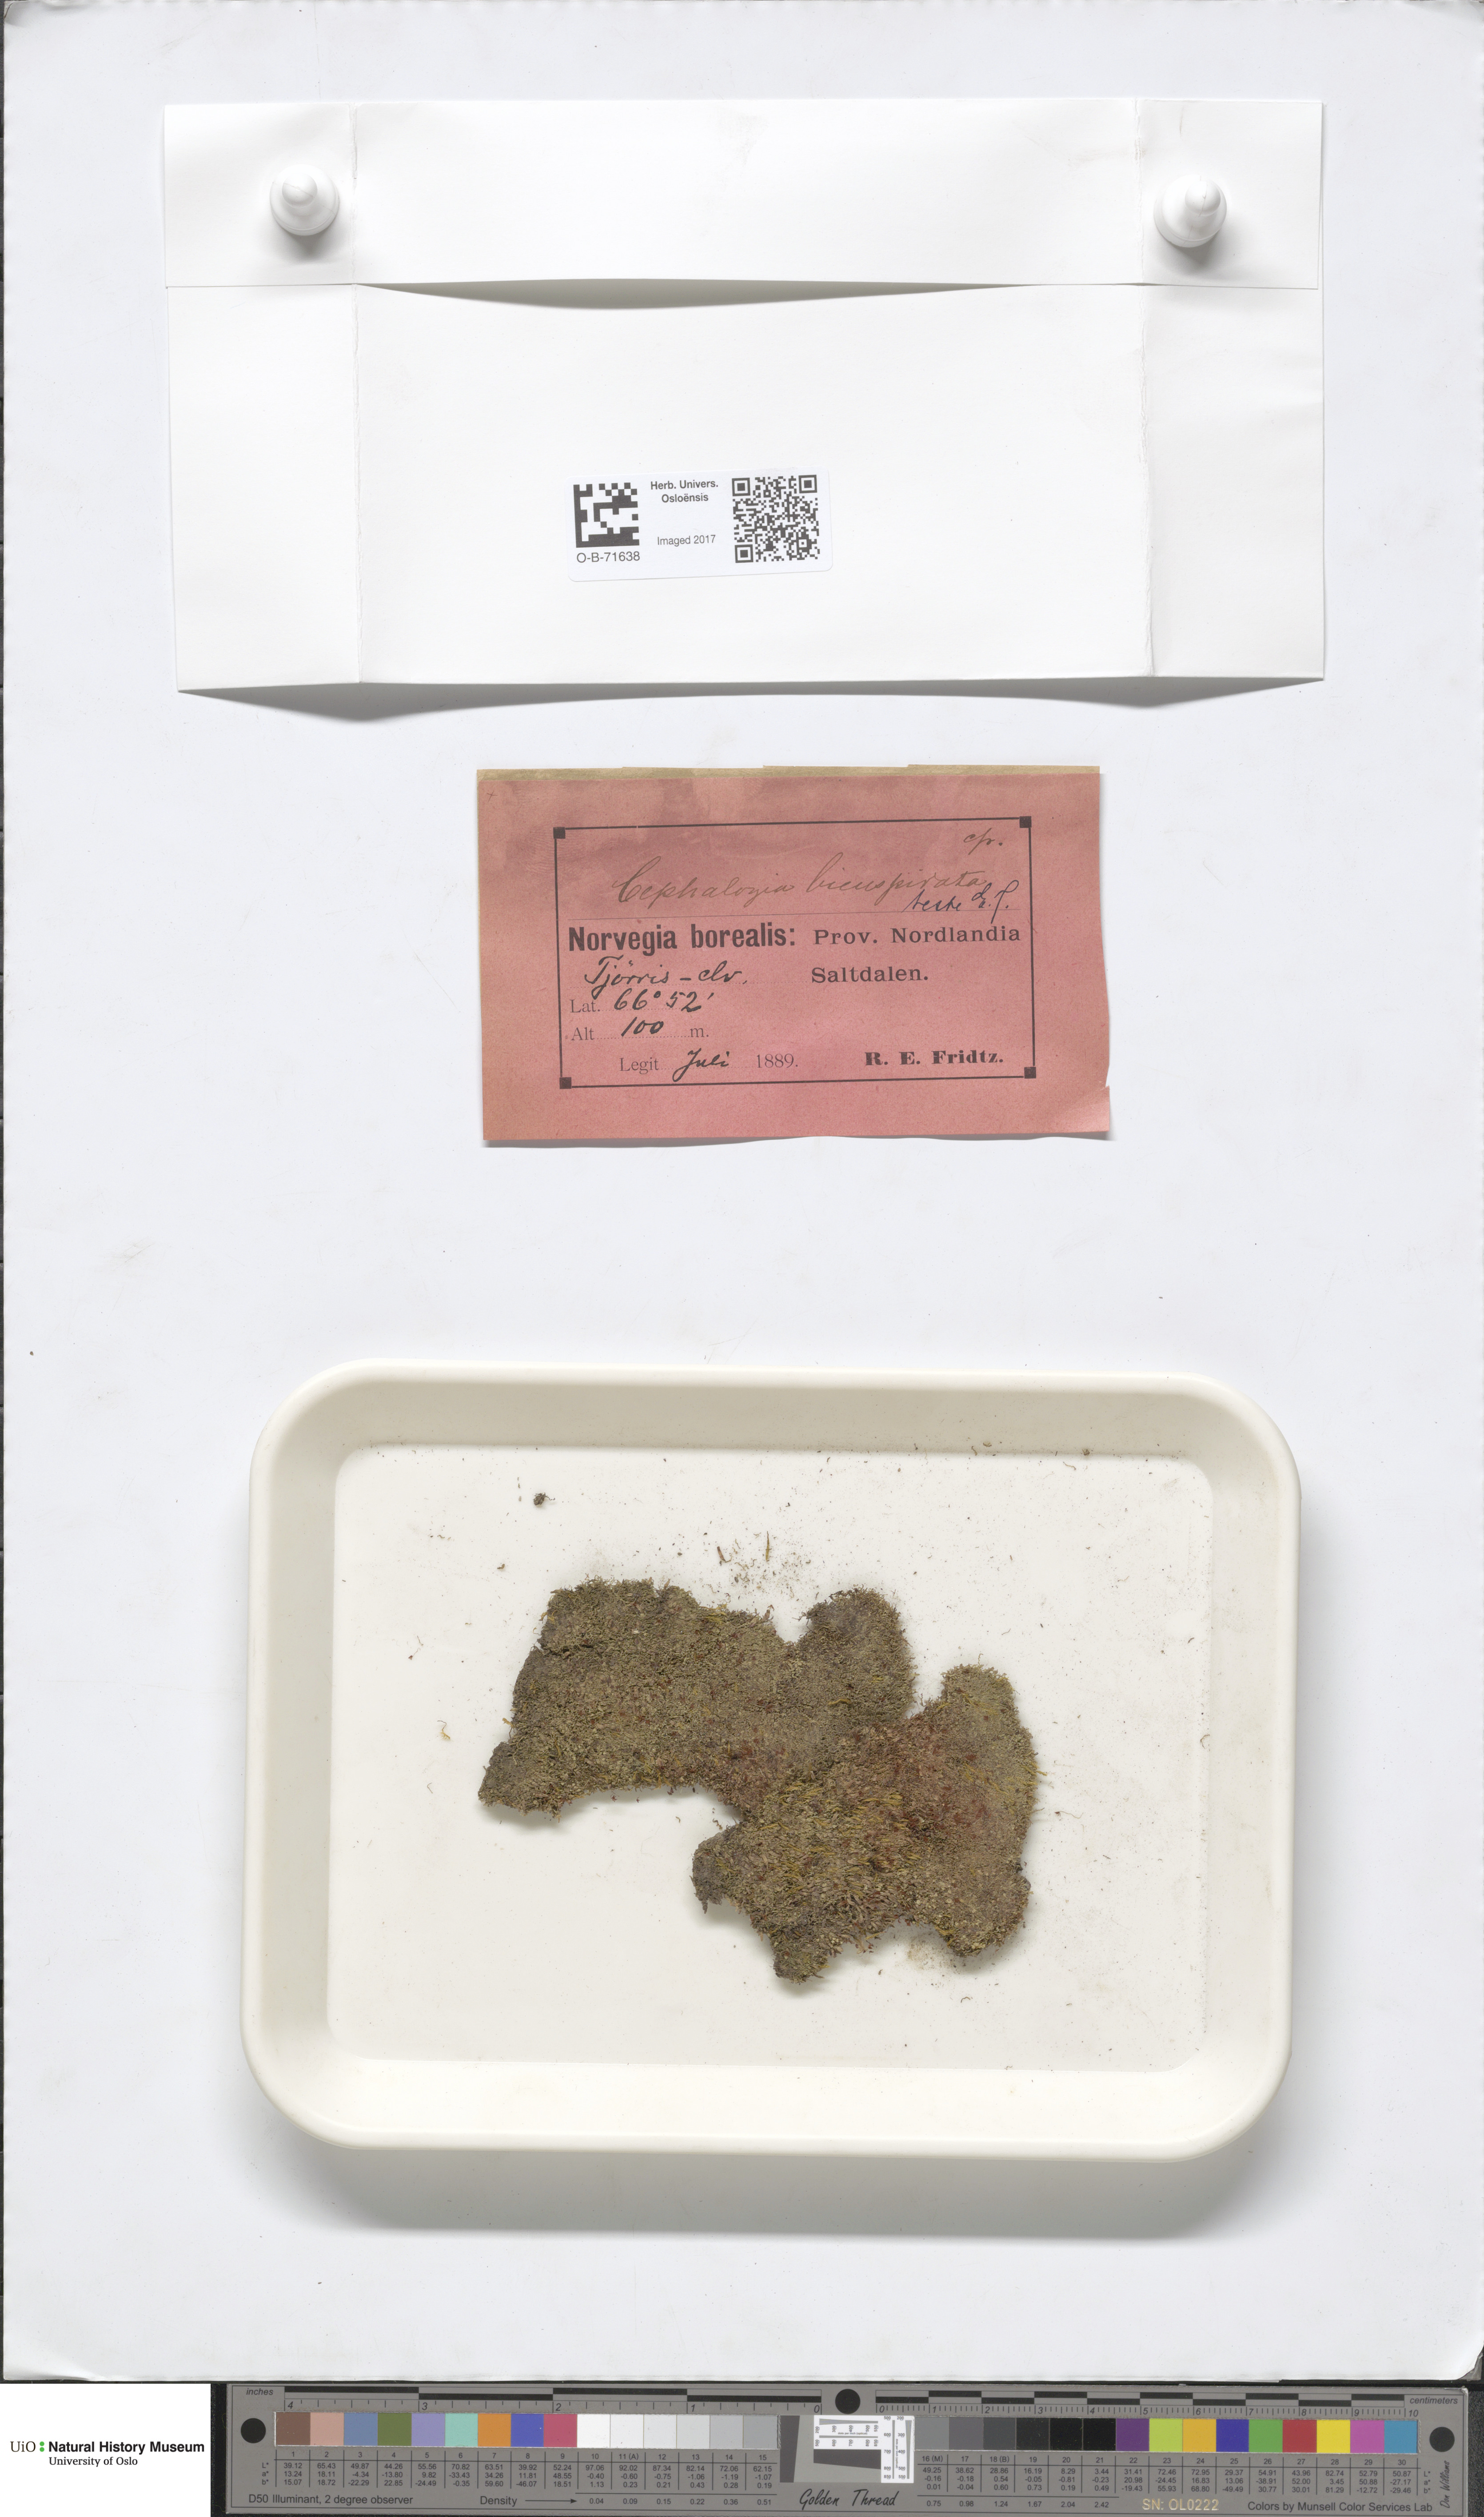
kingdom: Plantae
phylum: Marchantiophyta
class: Jungermanniopsida
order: Jungermanniales
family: Cephaloziaceae
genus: Cephalozia
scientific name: Cephalozia bicuspidata
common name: Two-horned pincerwort
